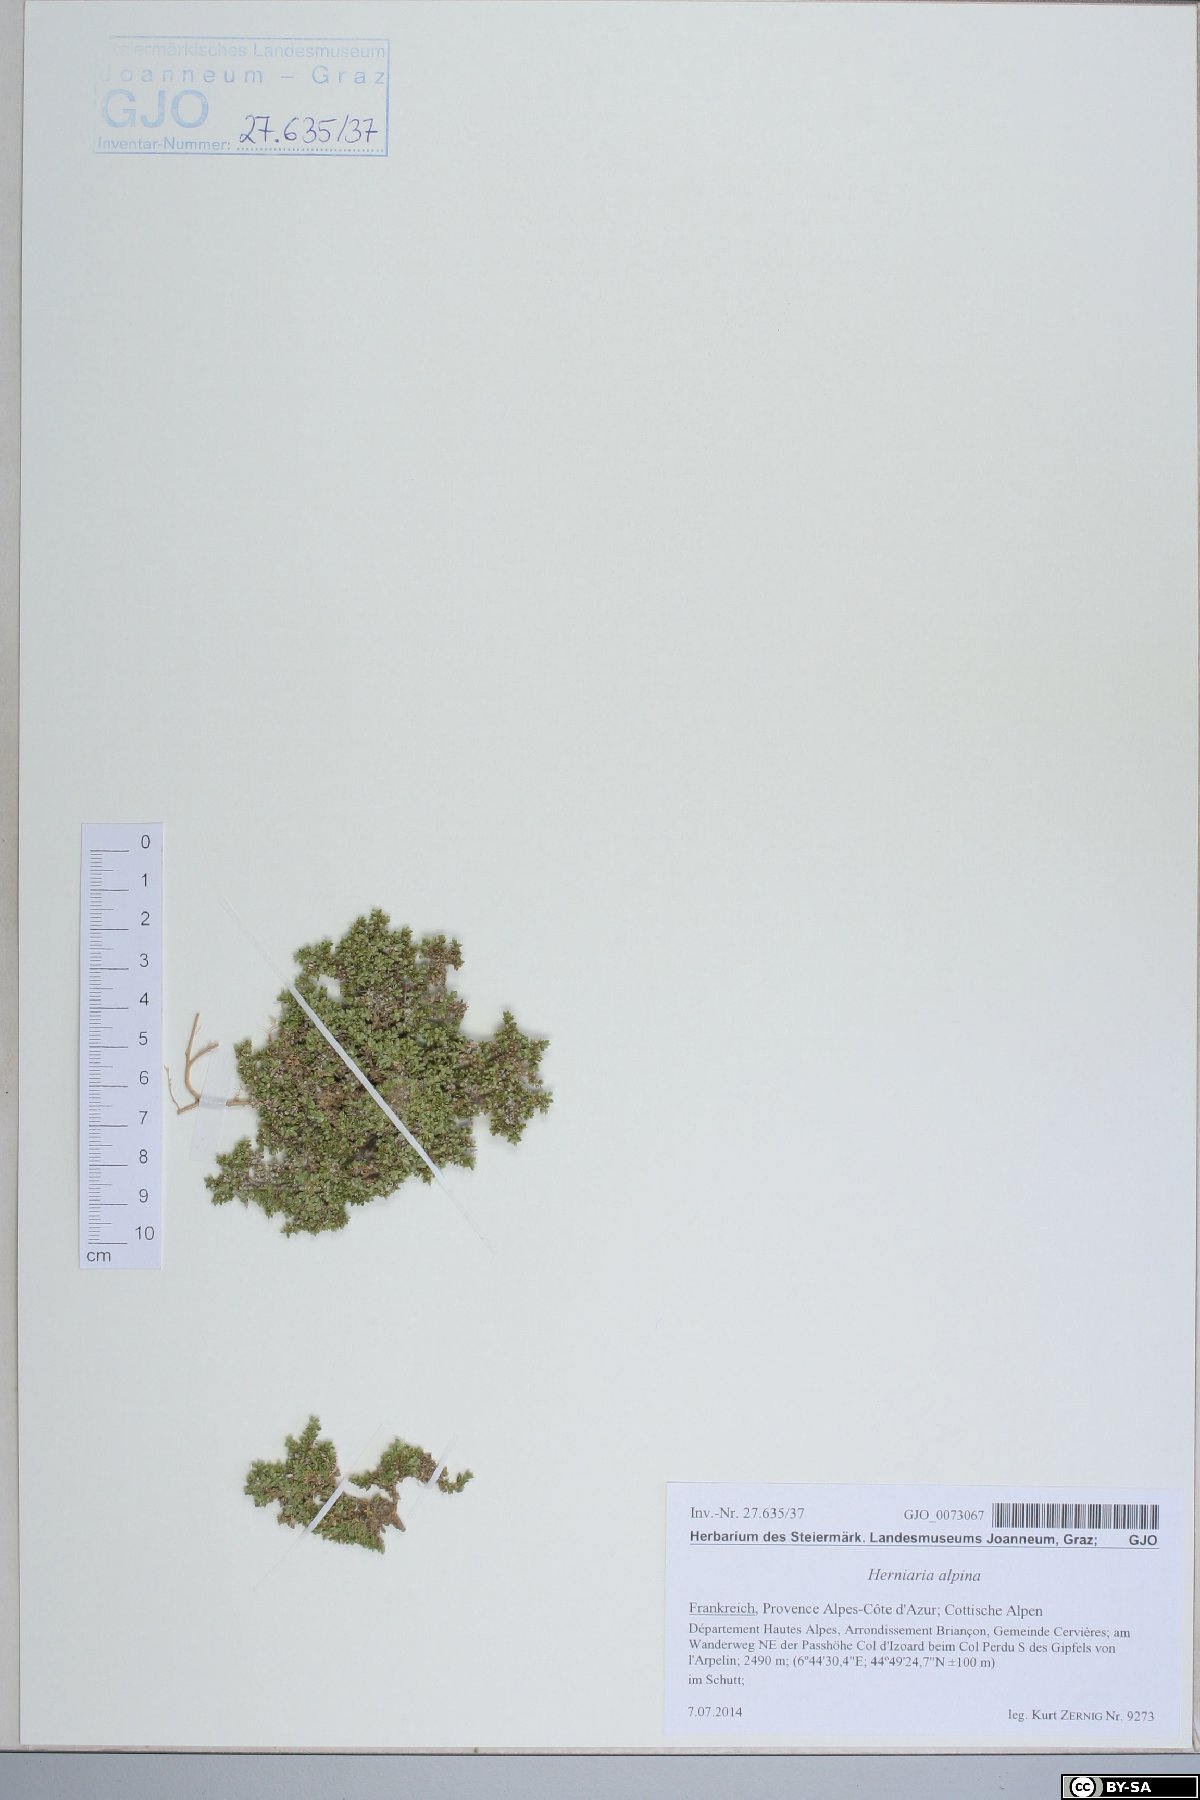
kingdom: Plantae
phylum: Tracheophyta
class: Magnoliopsida
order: Caryophyllales
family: Caryophyllaceae
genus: Herniaria
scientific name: Herniaria alpina
